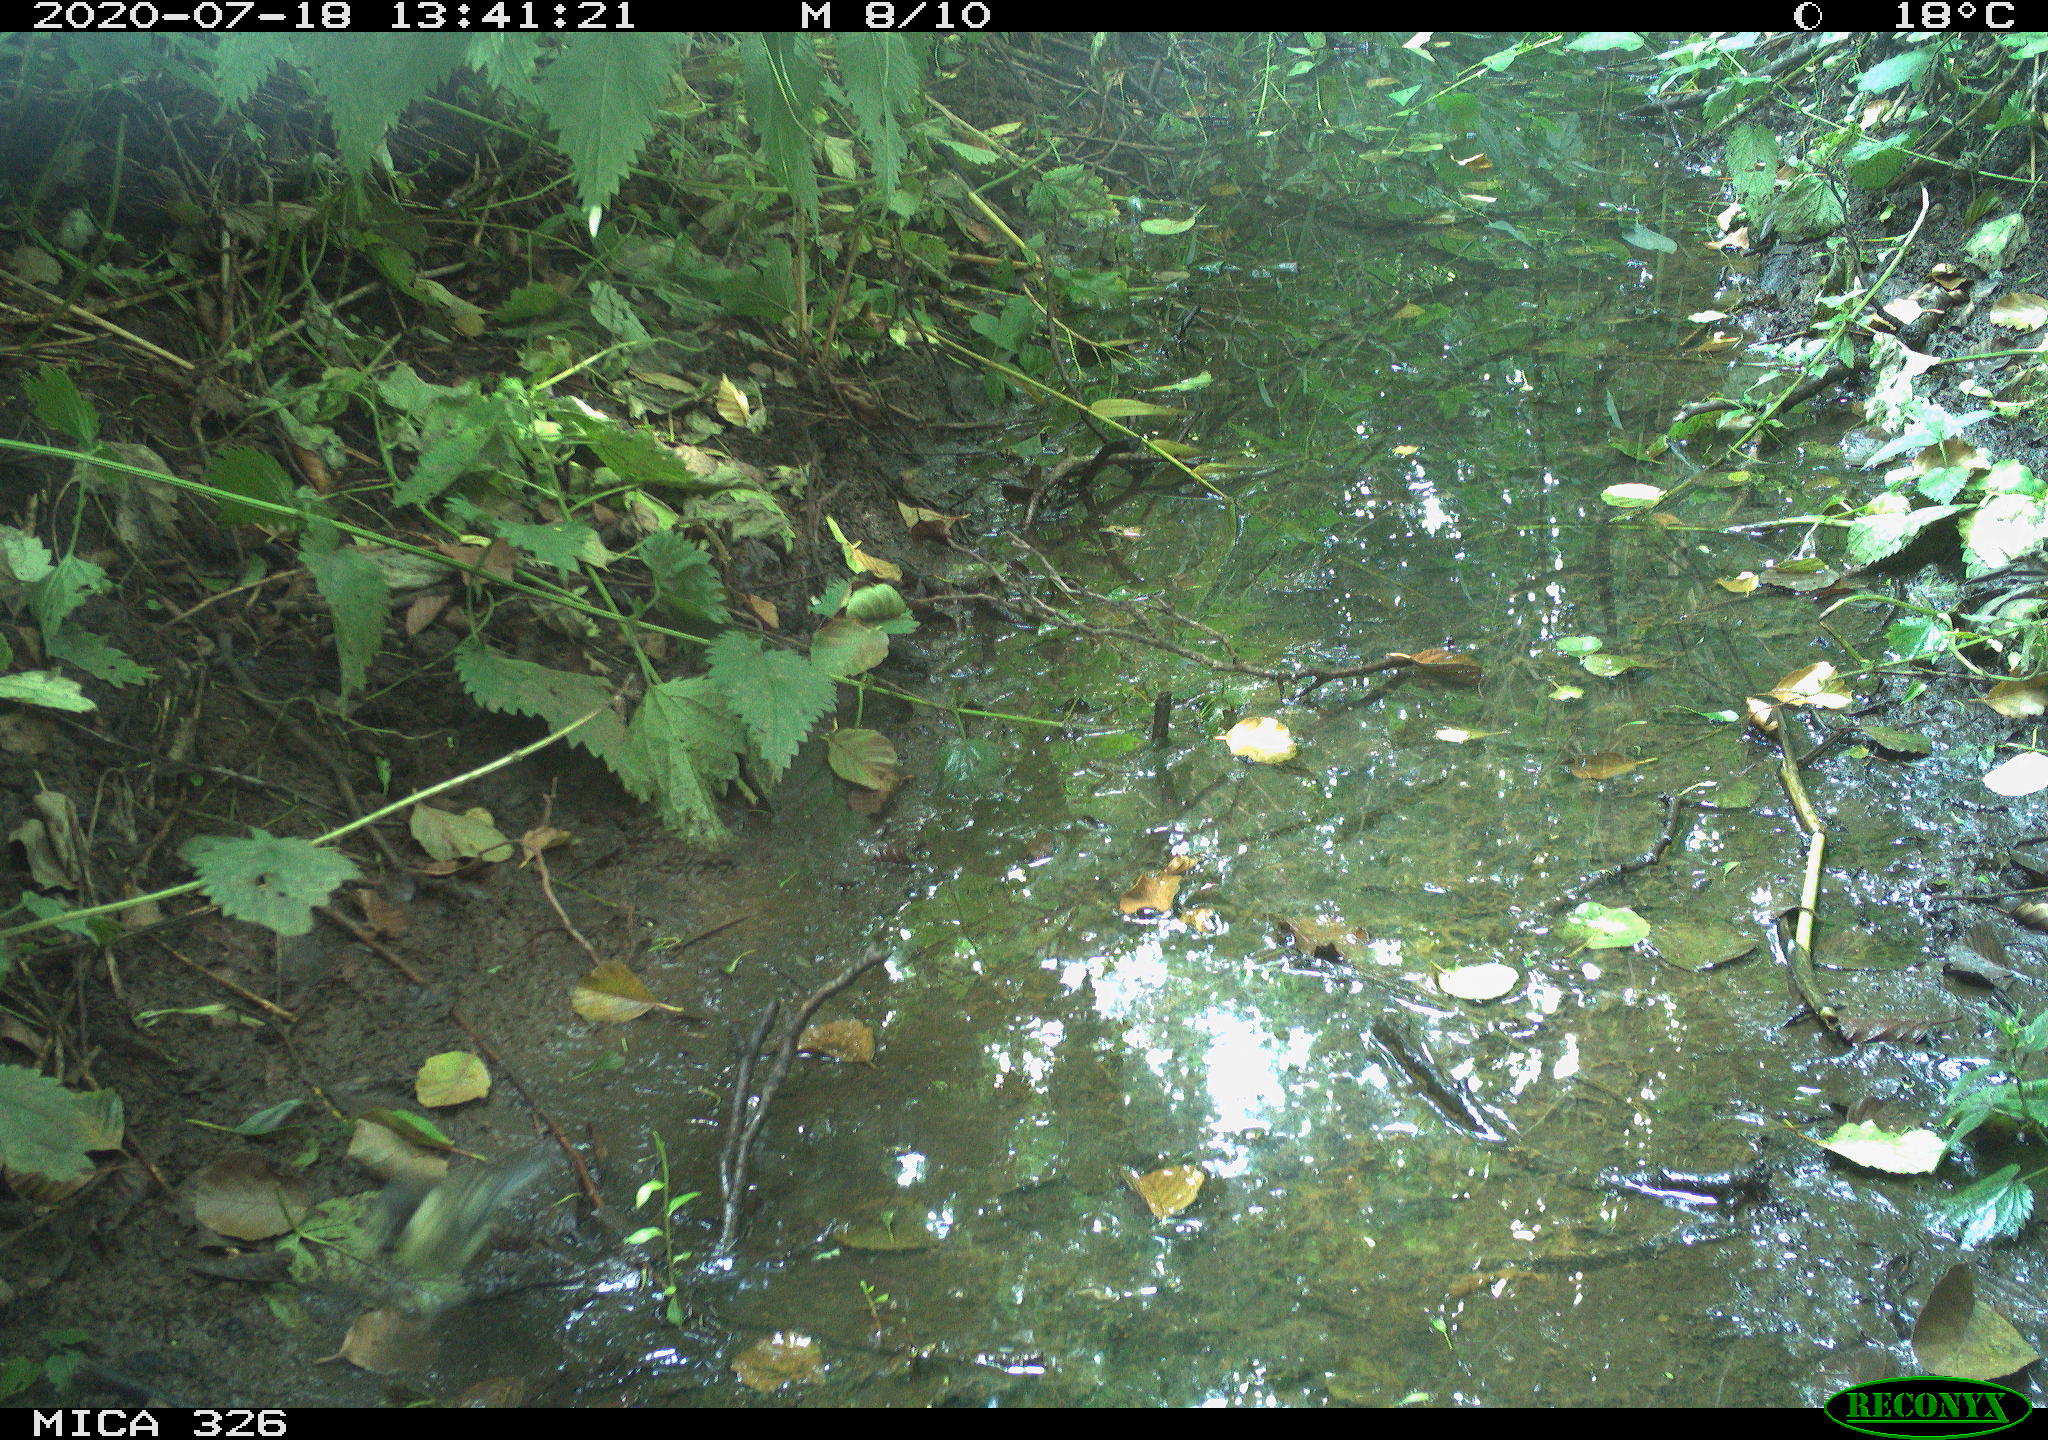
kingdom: Animalia
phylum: Chordata
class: Aves
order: Passeriformes
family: Paridae
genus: Parus
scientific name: Parus major
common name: Great tit
